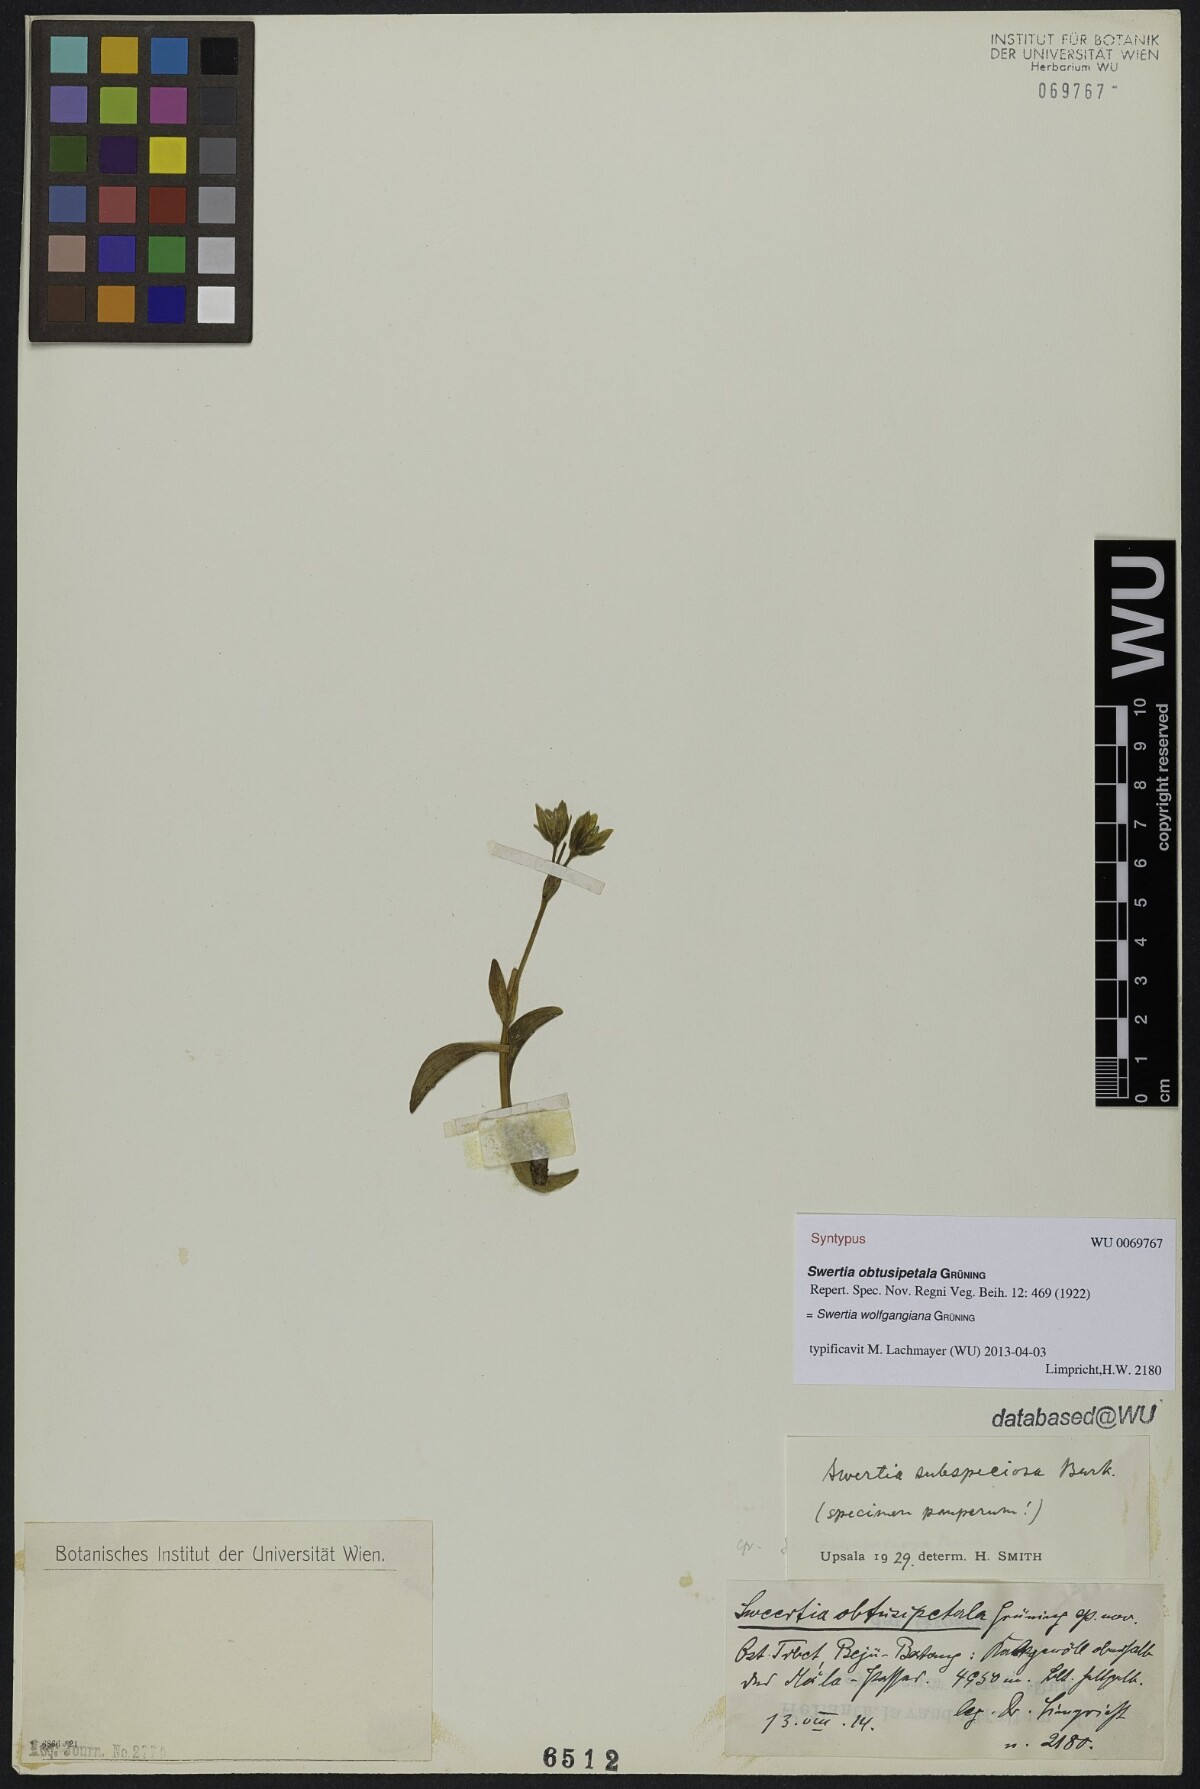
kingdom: Plantae
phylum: Tracheophyta
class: Magnoliopsida
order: Gentianales
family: Gentianaceae
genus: Swertia
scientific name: Swertia wolfgangiana
